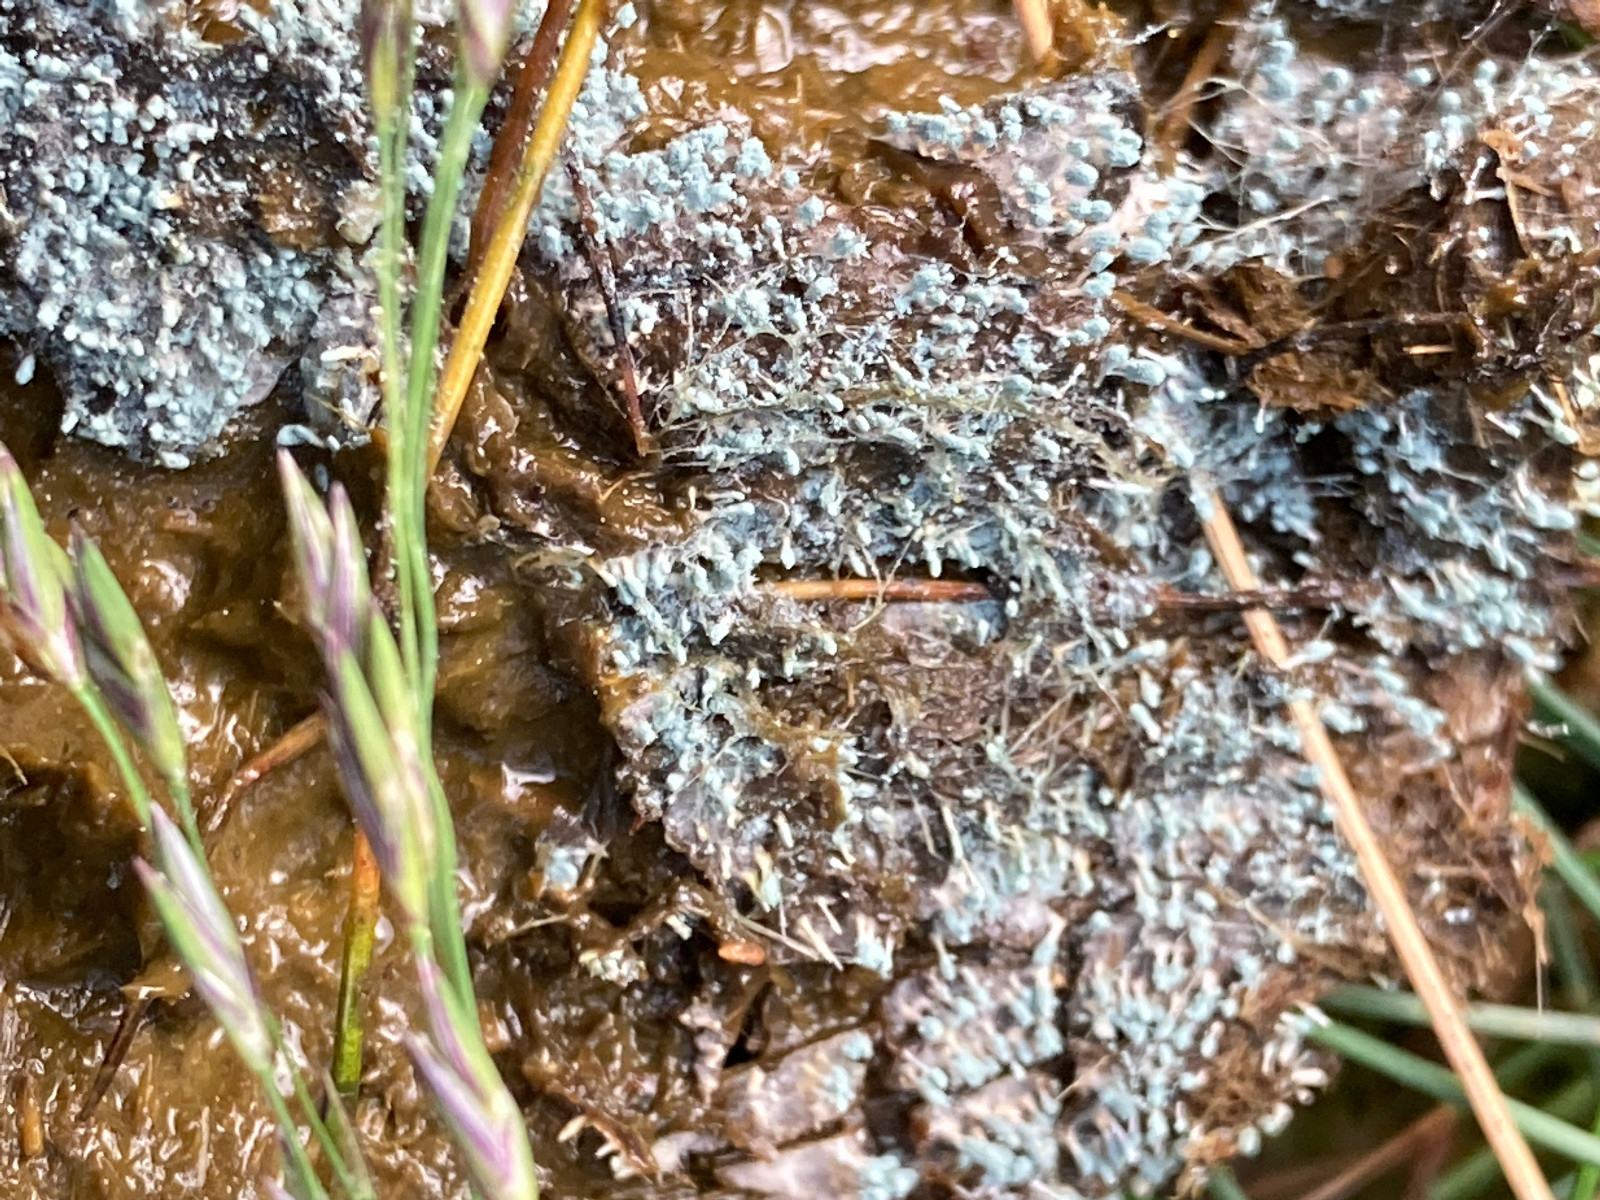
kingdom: Fungi
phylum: Ascomycota
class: Eurotiomycetes
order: Eurotiales
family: Aspergillaceae
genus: Penicillium
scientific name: Penicillium
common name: penselskimmel
